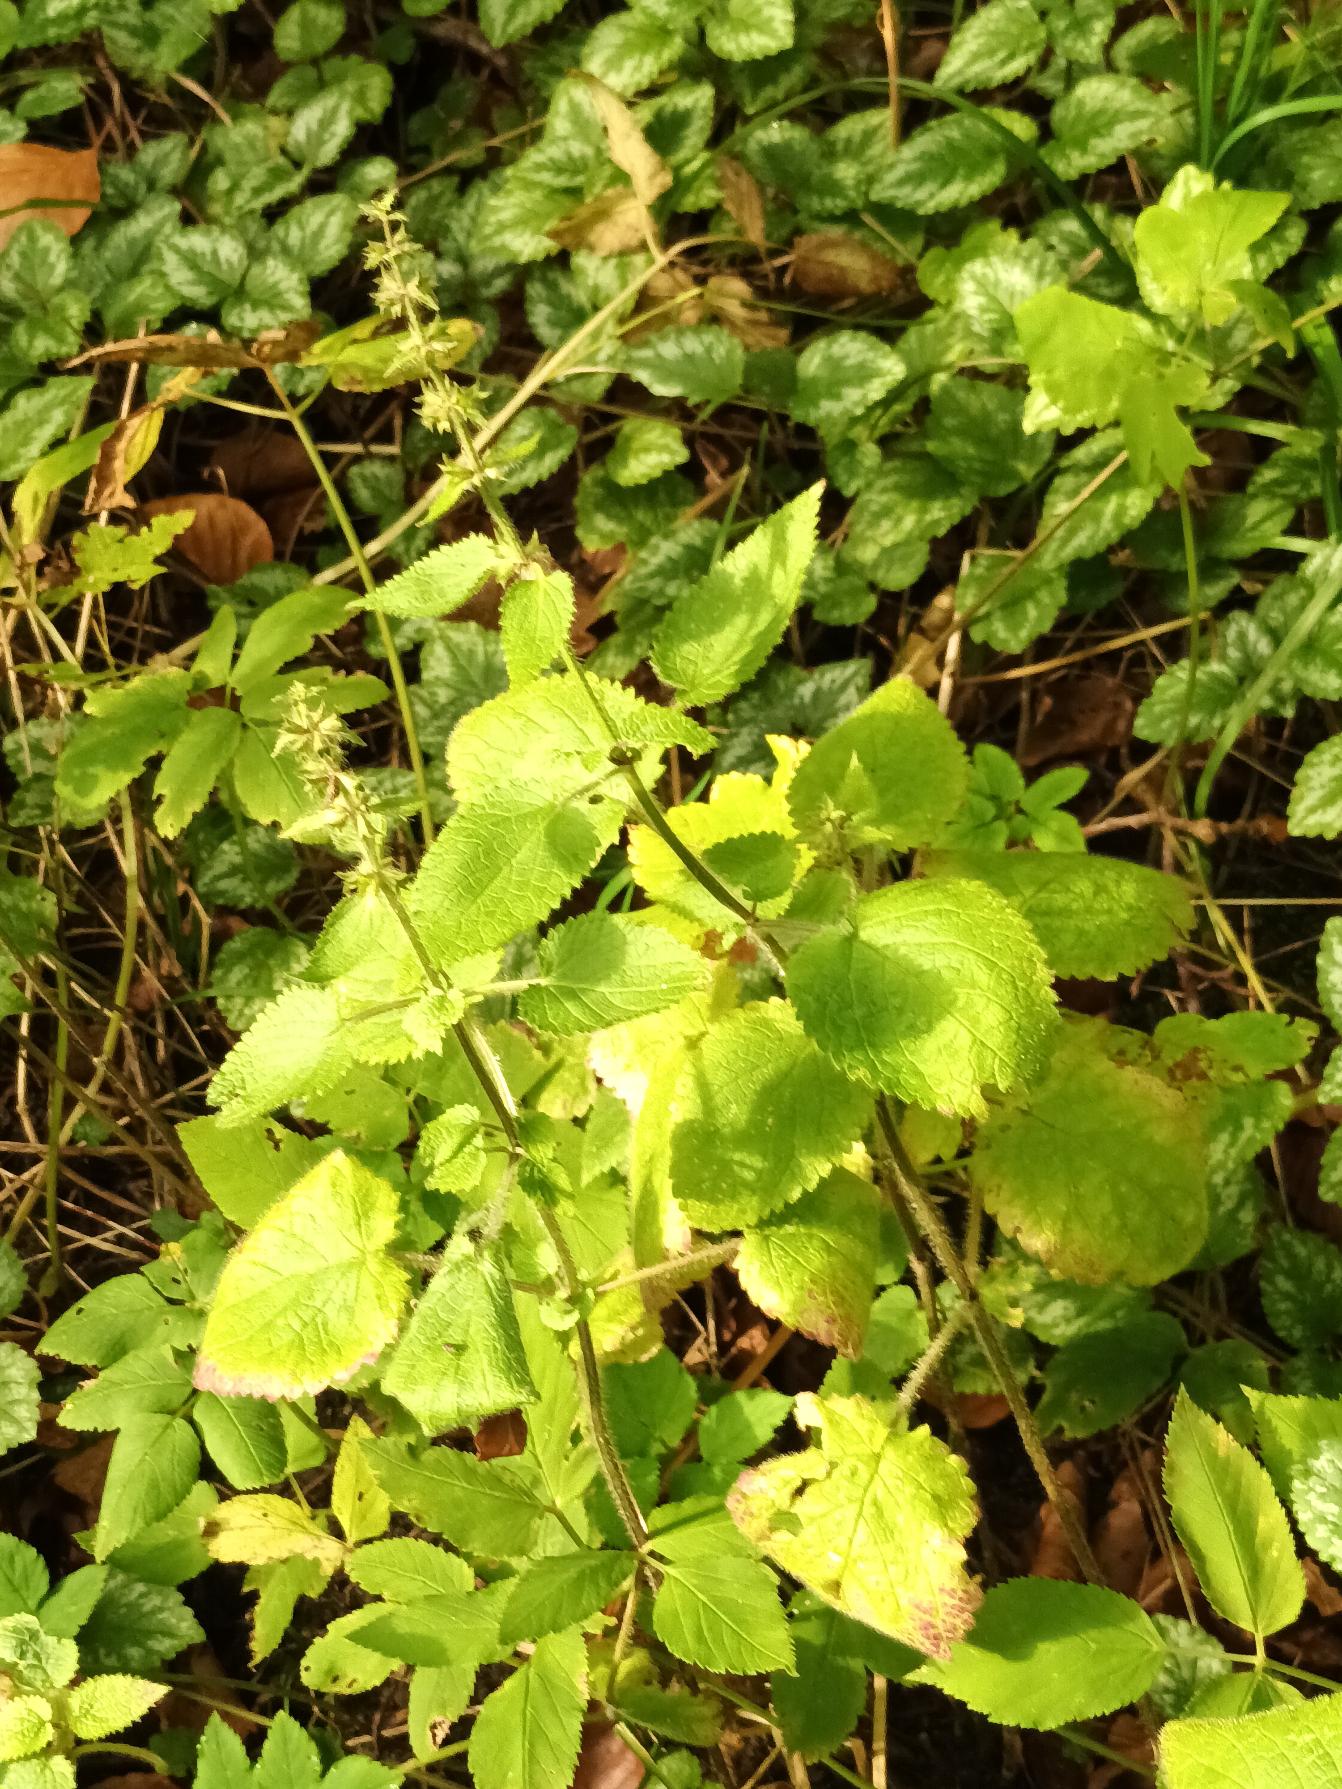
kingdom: Plantae
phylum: Tracheophyta
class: Magnoliopsida
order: Lamiales
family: Lamiaceae
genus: Stachys
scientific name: Stachys sylvatica
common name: Skov-galtetand
